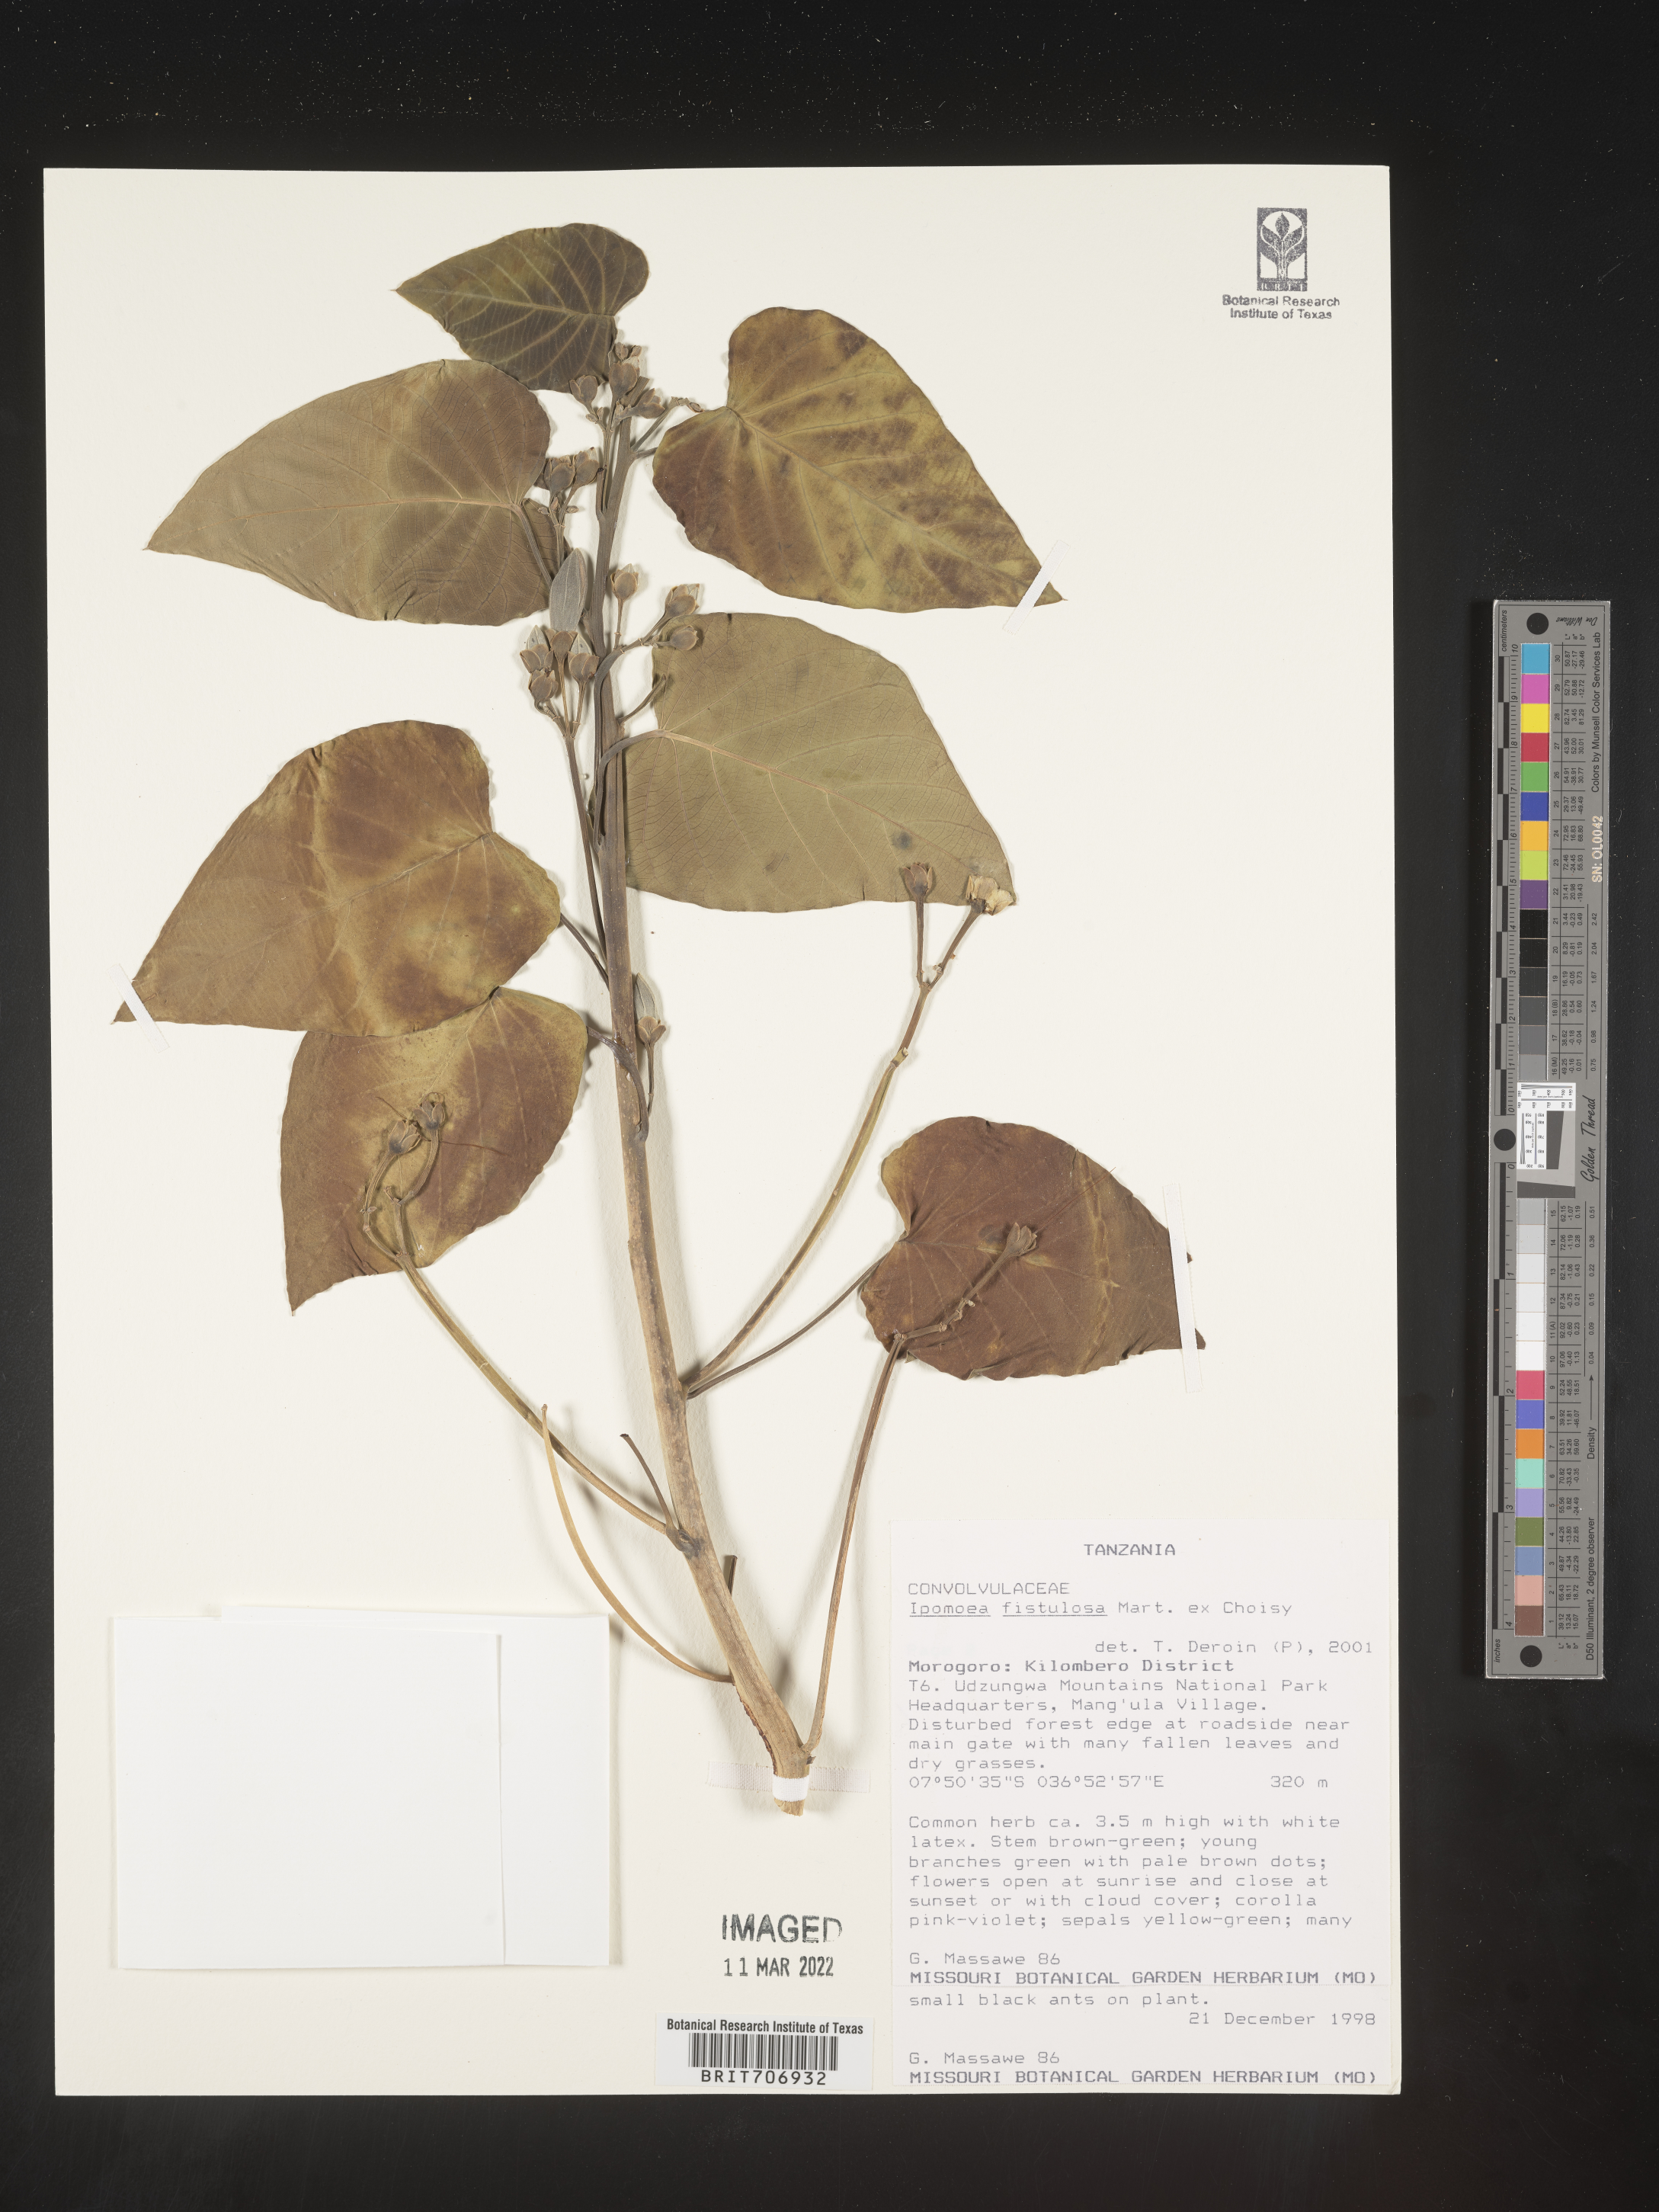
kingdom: Plantae
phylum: Tracheophyta
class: Magnoliopsida
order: Solanales
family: Convolvulaceae
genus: Ipomoea
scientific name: Ipomoea
